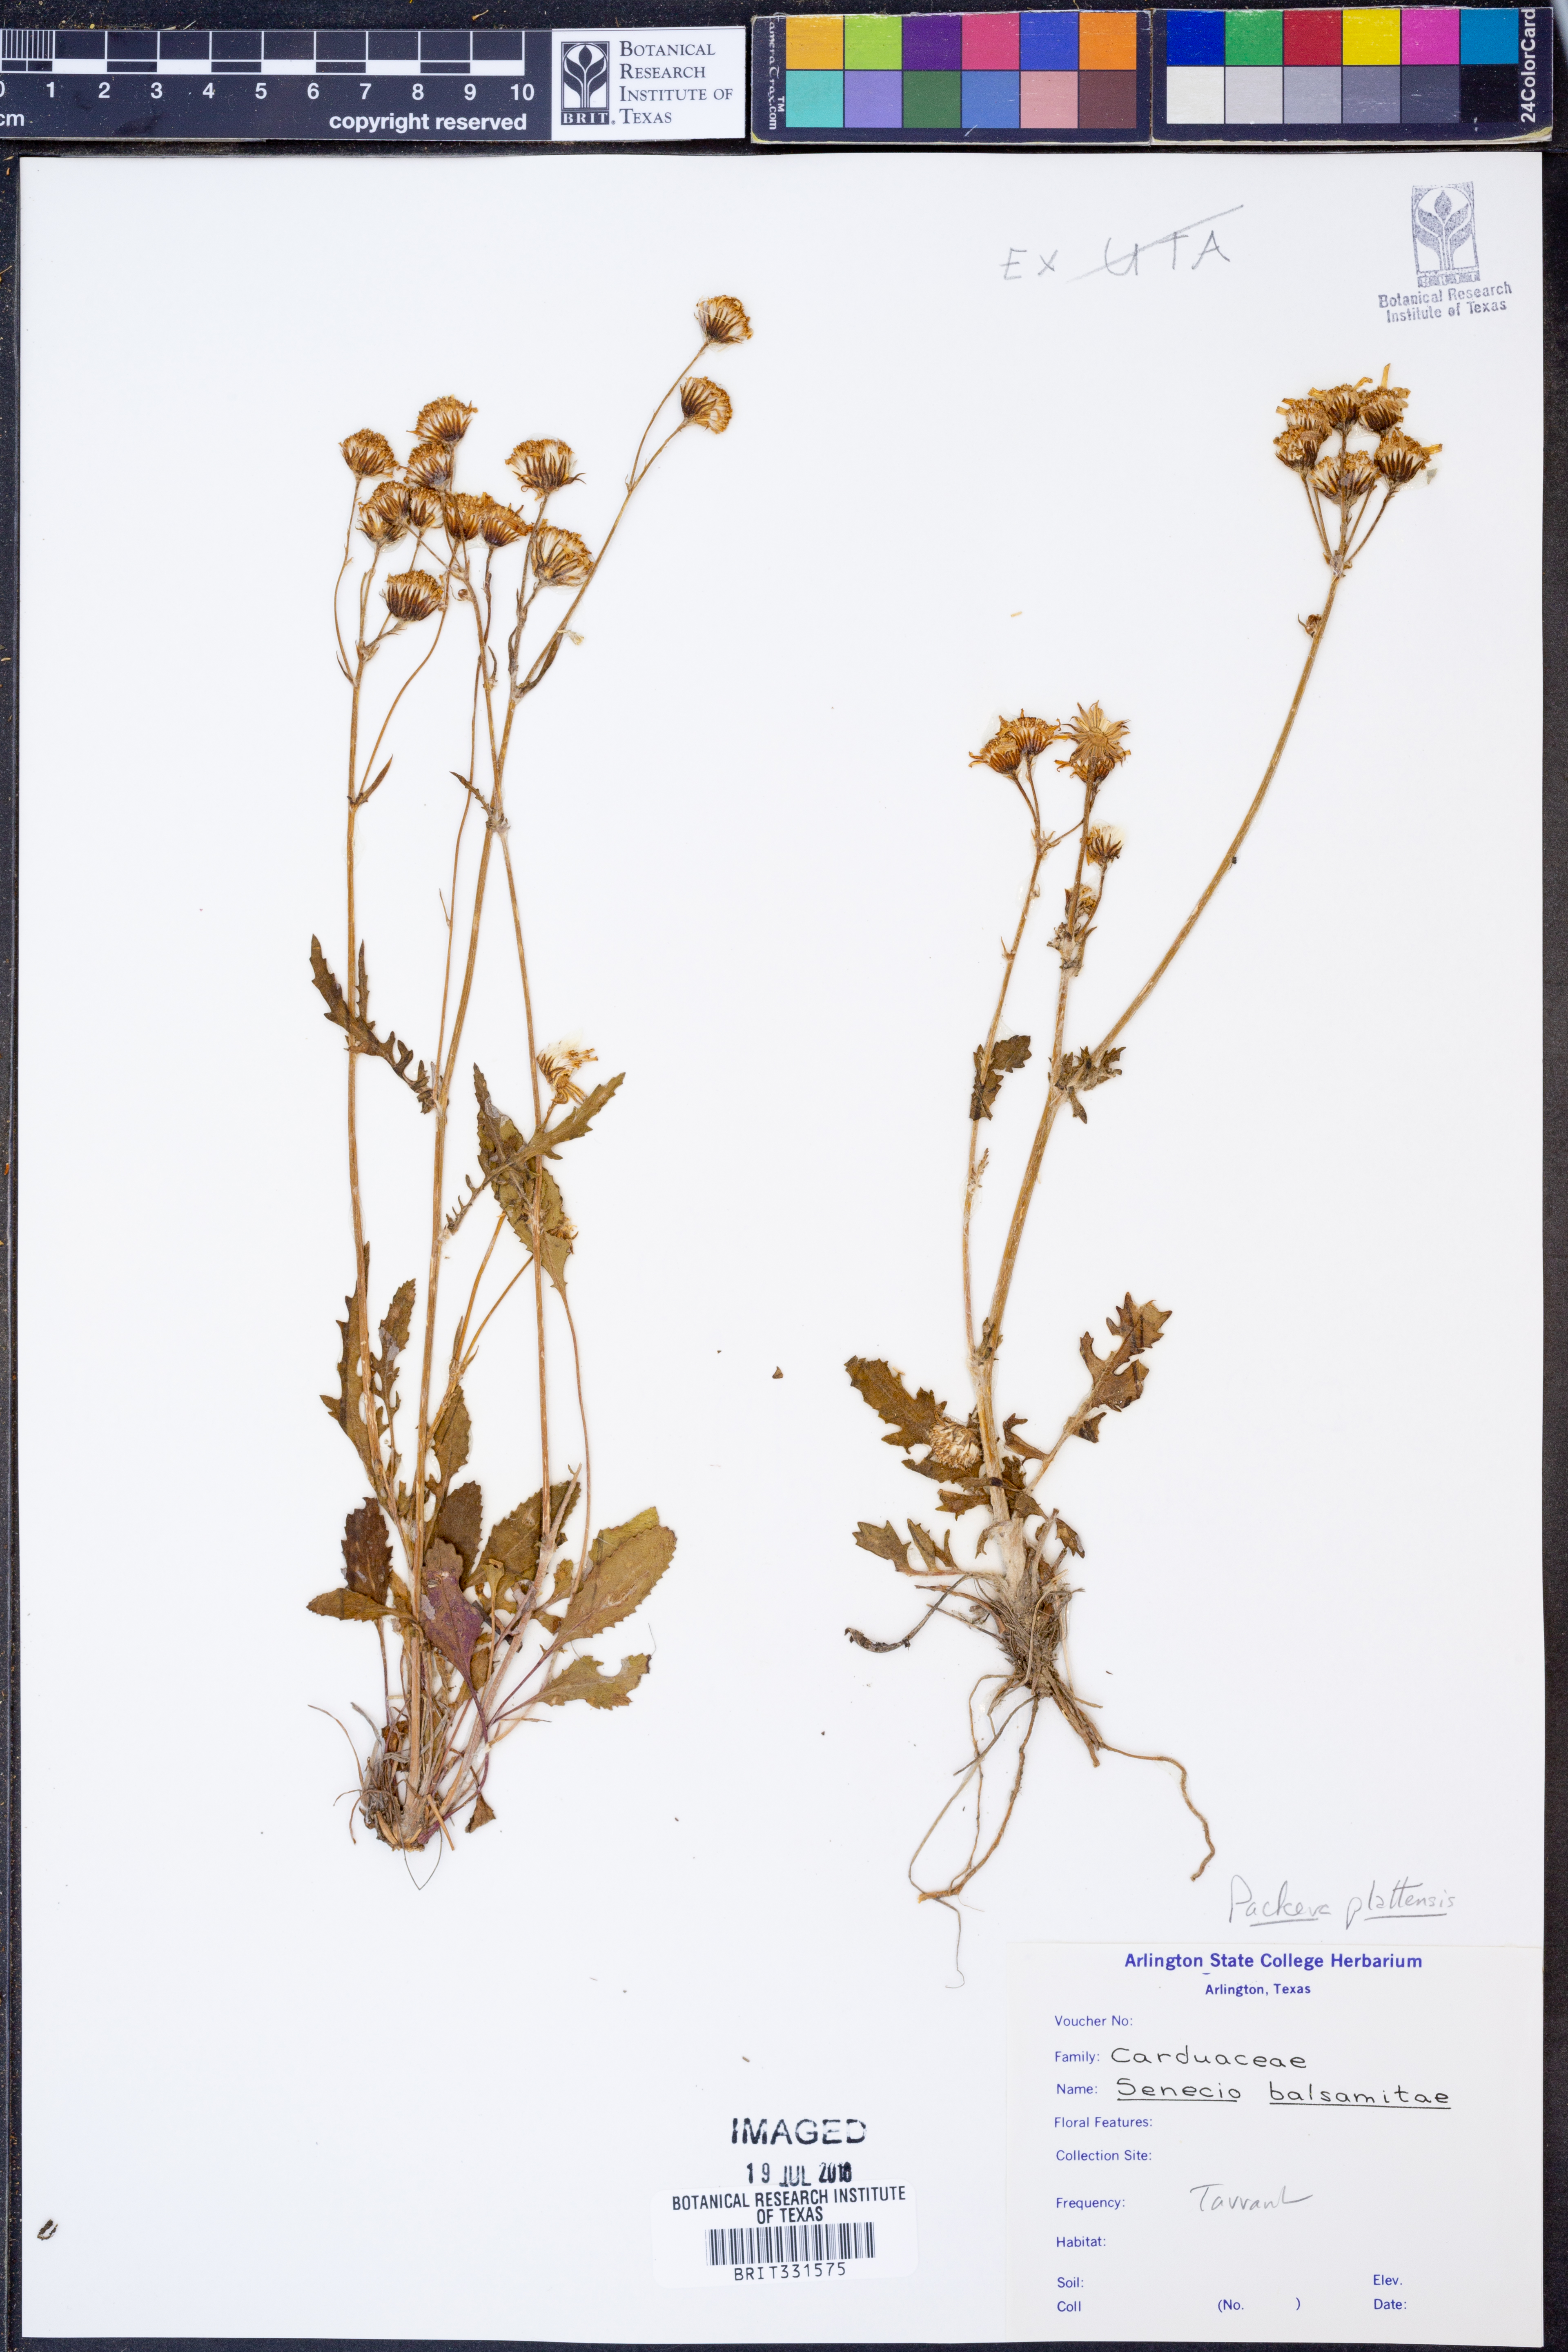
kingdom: Plantae
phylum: Tracheophyta
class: Magnoliopsida
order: Asterales
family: Asteraceae
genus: Packera
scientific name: Packera plattensis
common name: Prairie groundsel
